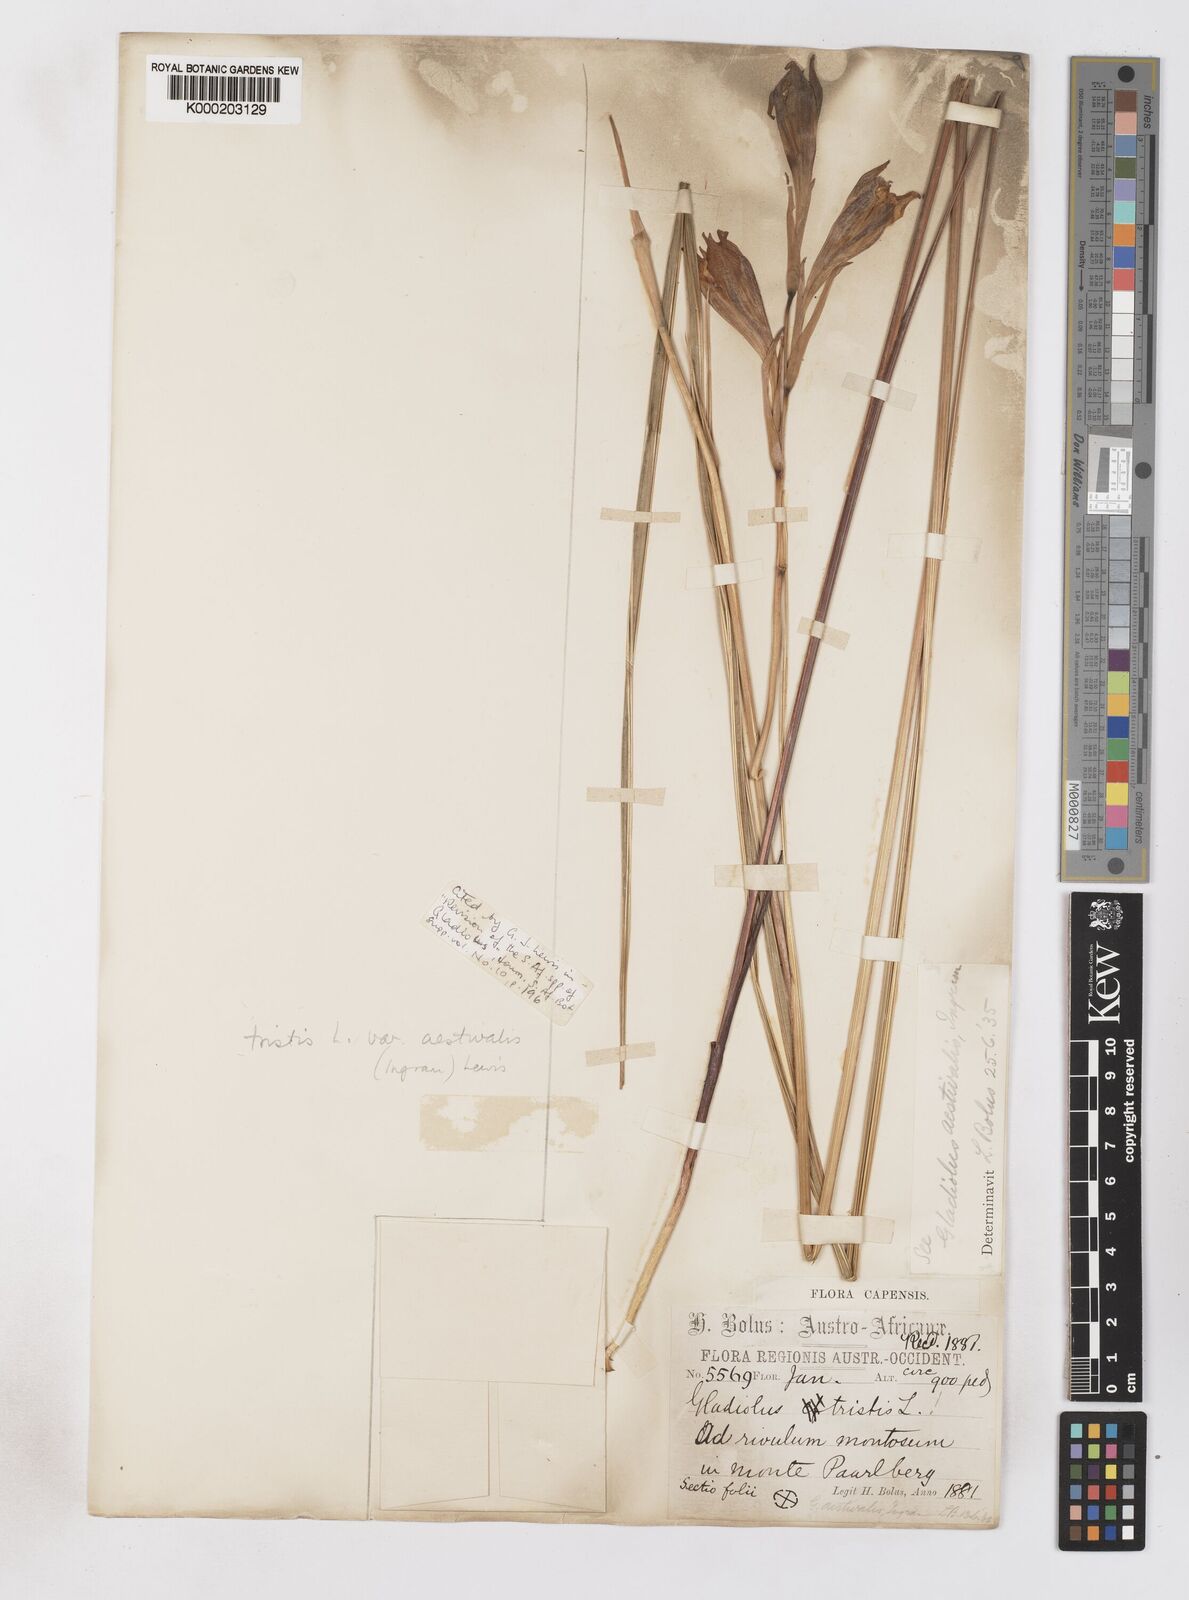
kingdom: Plantae
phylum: Tracheophyta
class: Liliopsida
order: Asparagales
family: Iridaceae
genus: Gladiolus
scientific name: Gladiolus tristis
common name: Ever-flowering gladiolus
